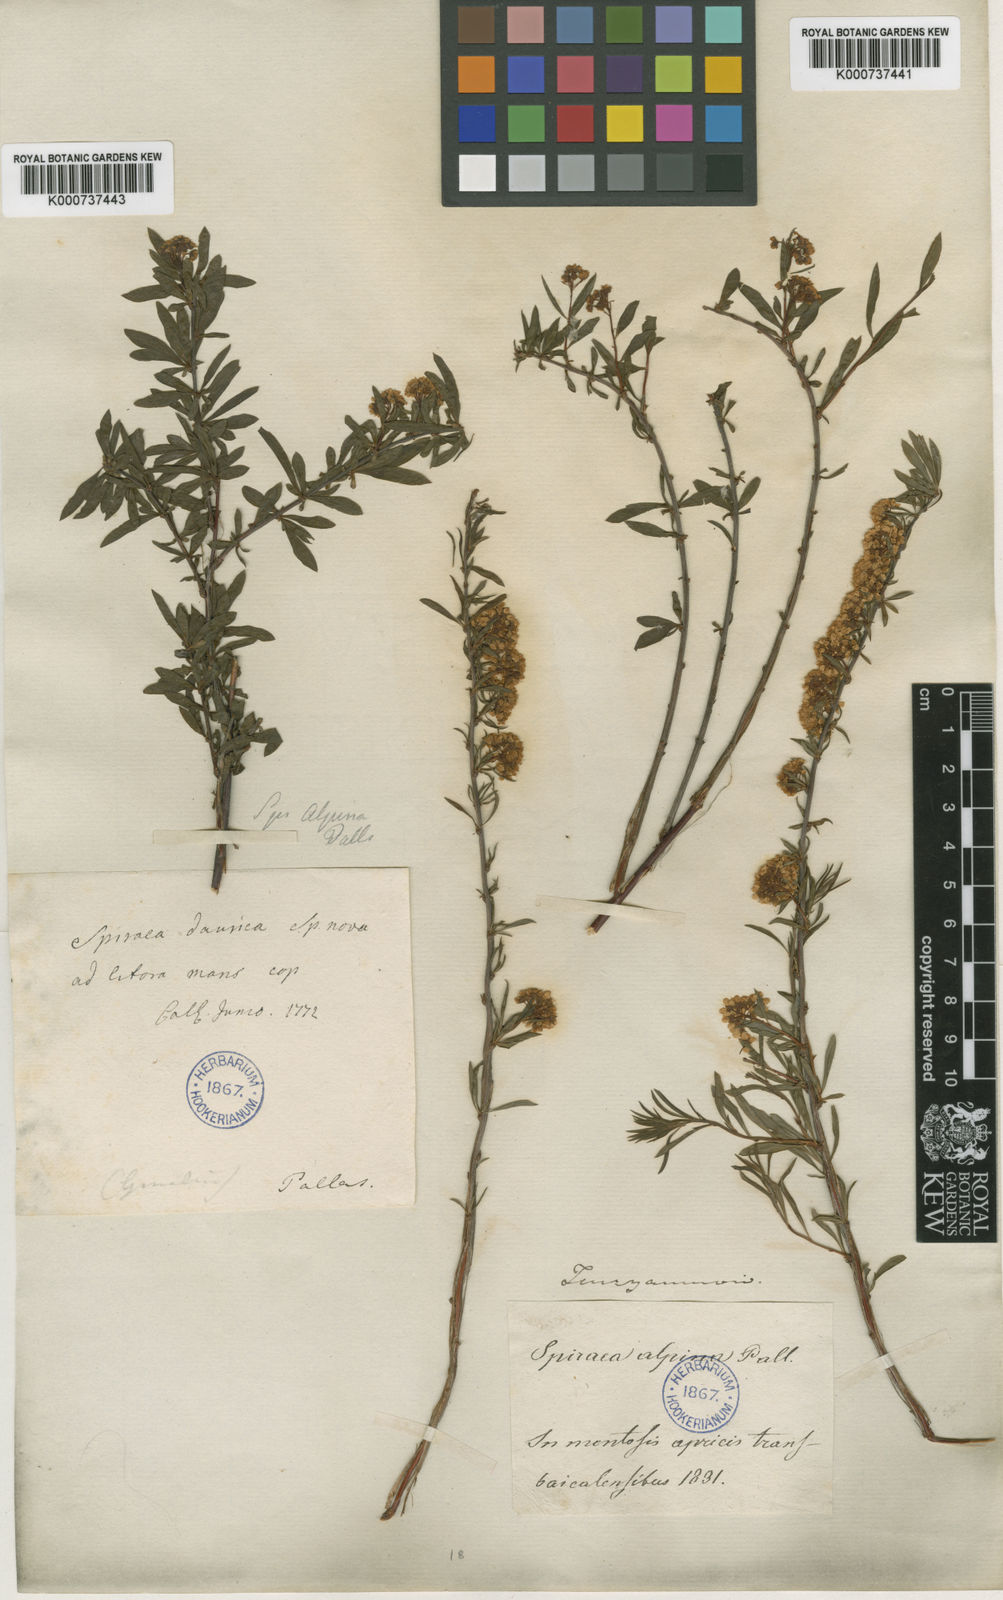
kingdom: Plantae
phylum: Tracheophyta
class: Magnoliopsida
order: Rosales
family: Rosaceae
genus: Spiraea
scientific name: Spiraea alpina
